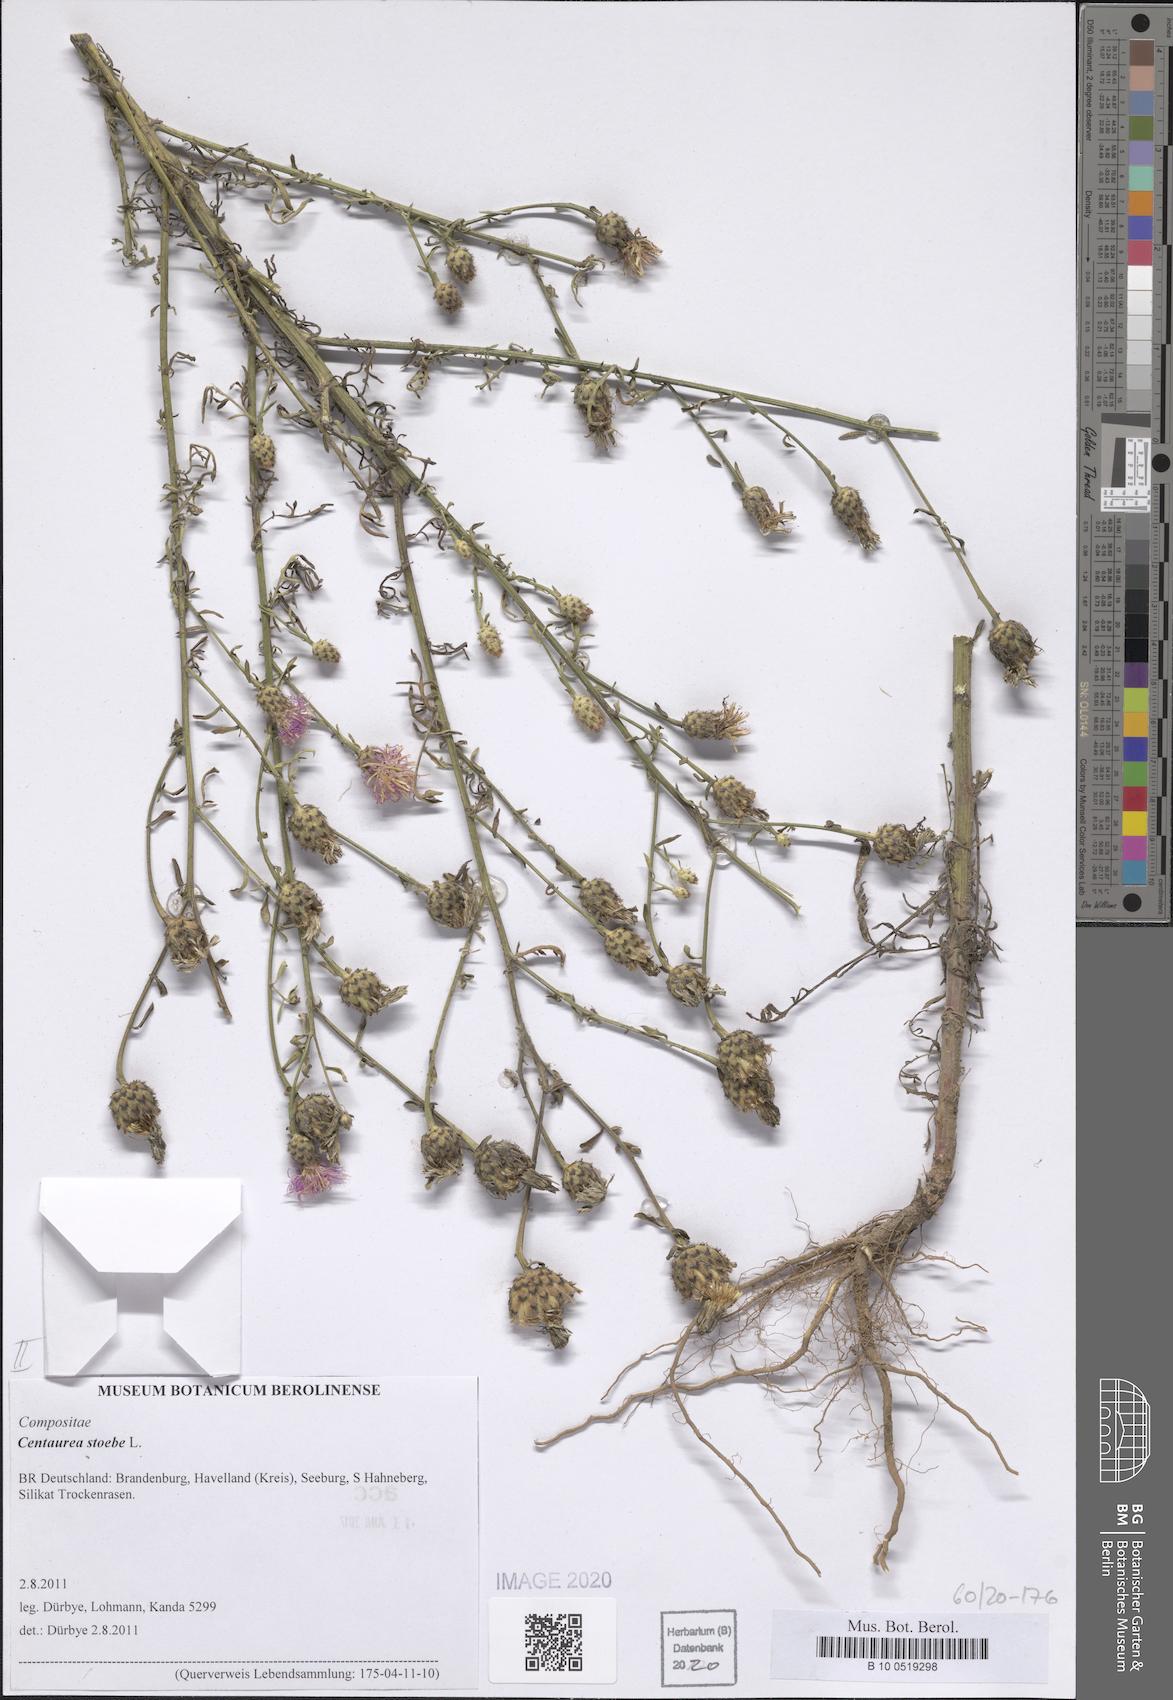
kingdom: Plantae
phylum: Tracheophyta
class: Magnoliopsida
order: Asterales
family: Asteraceae
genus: Centaurea
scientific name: Centaurea stoebe
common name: Spotted knapweed
